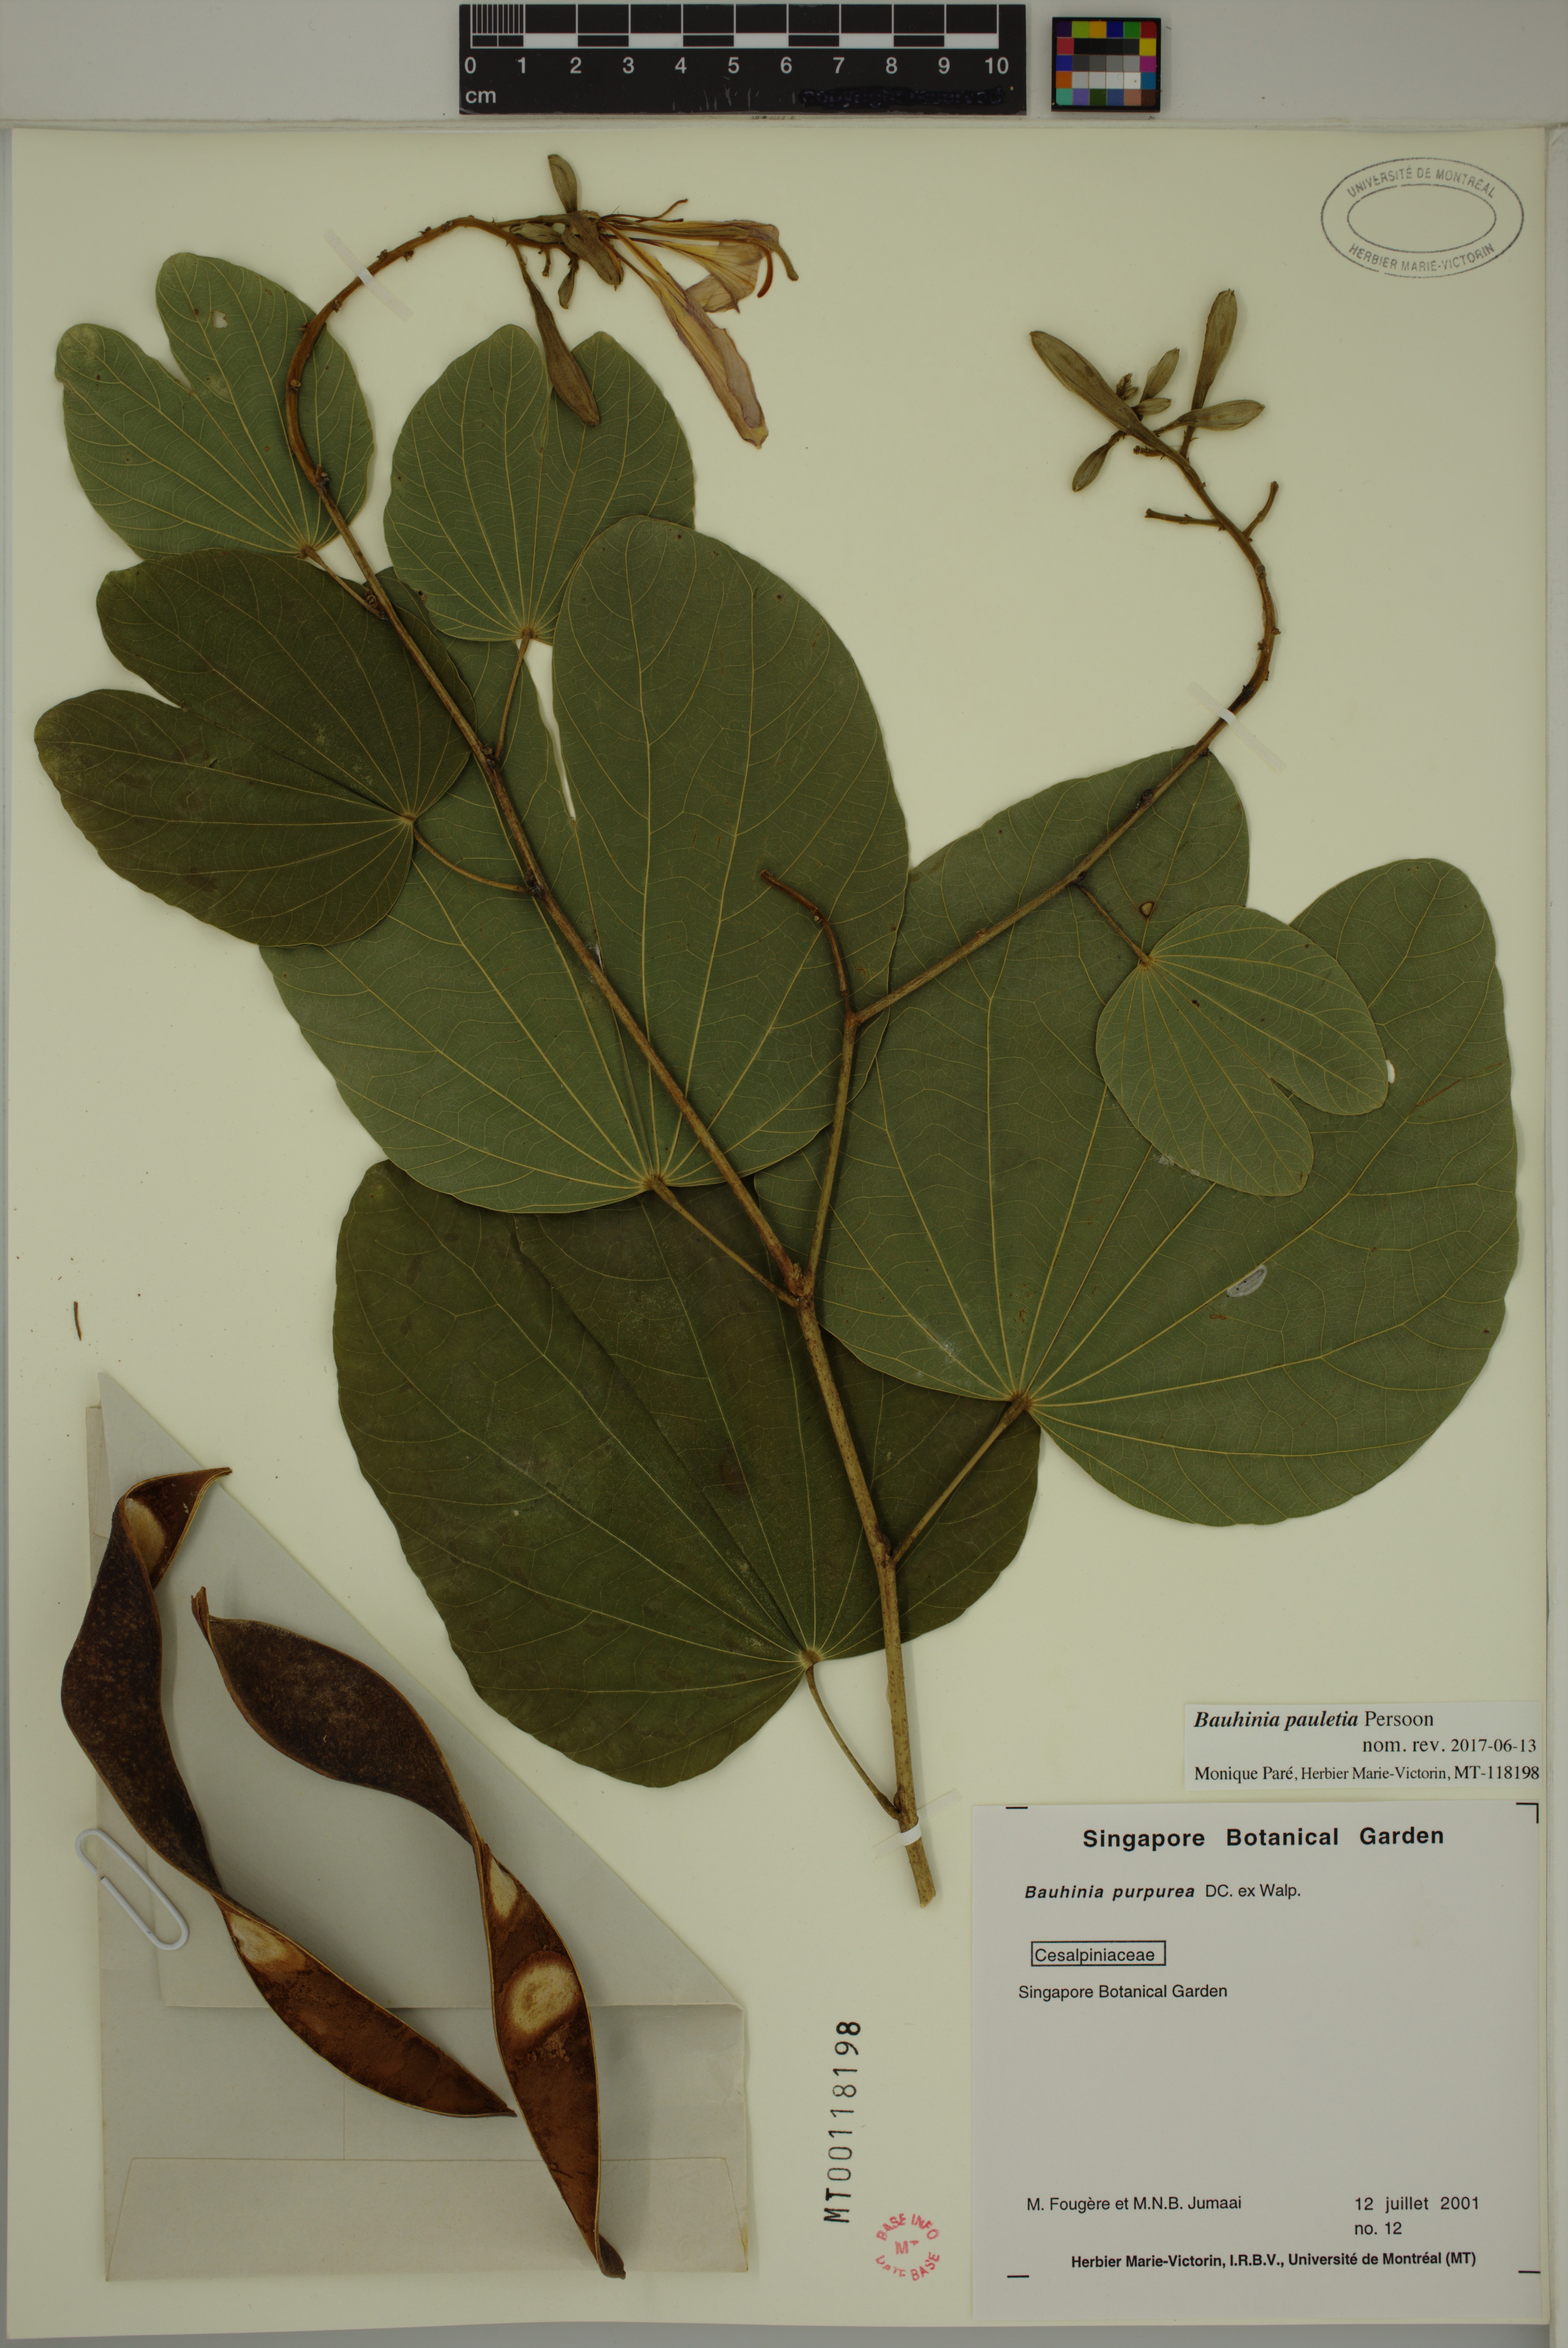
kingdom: Plantae
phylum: Tracheophyta
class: Magnoliopsida
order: Fabales
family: Fabaceae
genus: Bauhinia
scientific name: Bauhinia pauletia
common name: Railway-fence bauhinia
